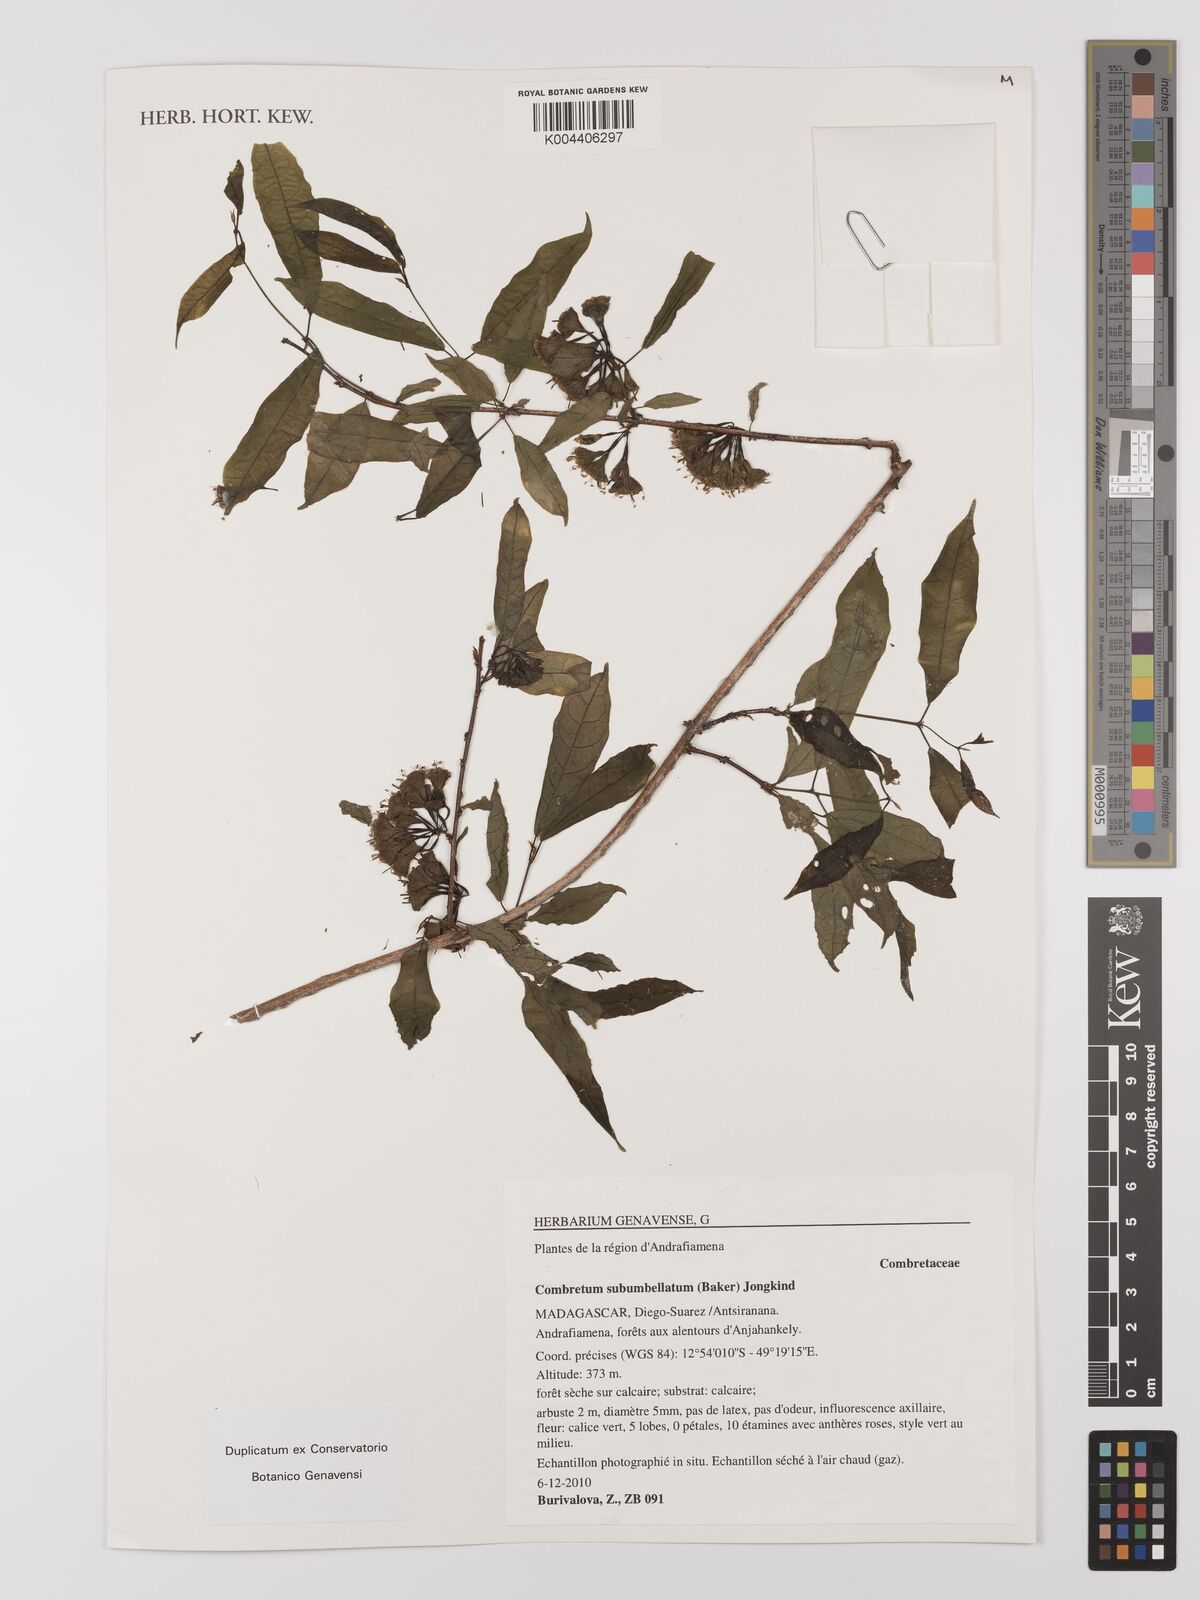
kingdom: Plantae
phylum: Tracheophyta
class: Magnoliopsida
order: Myrtales
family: Combretaceae
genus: Combretum
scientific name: Combretum subumbellatum
